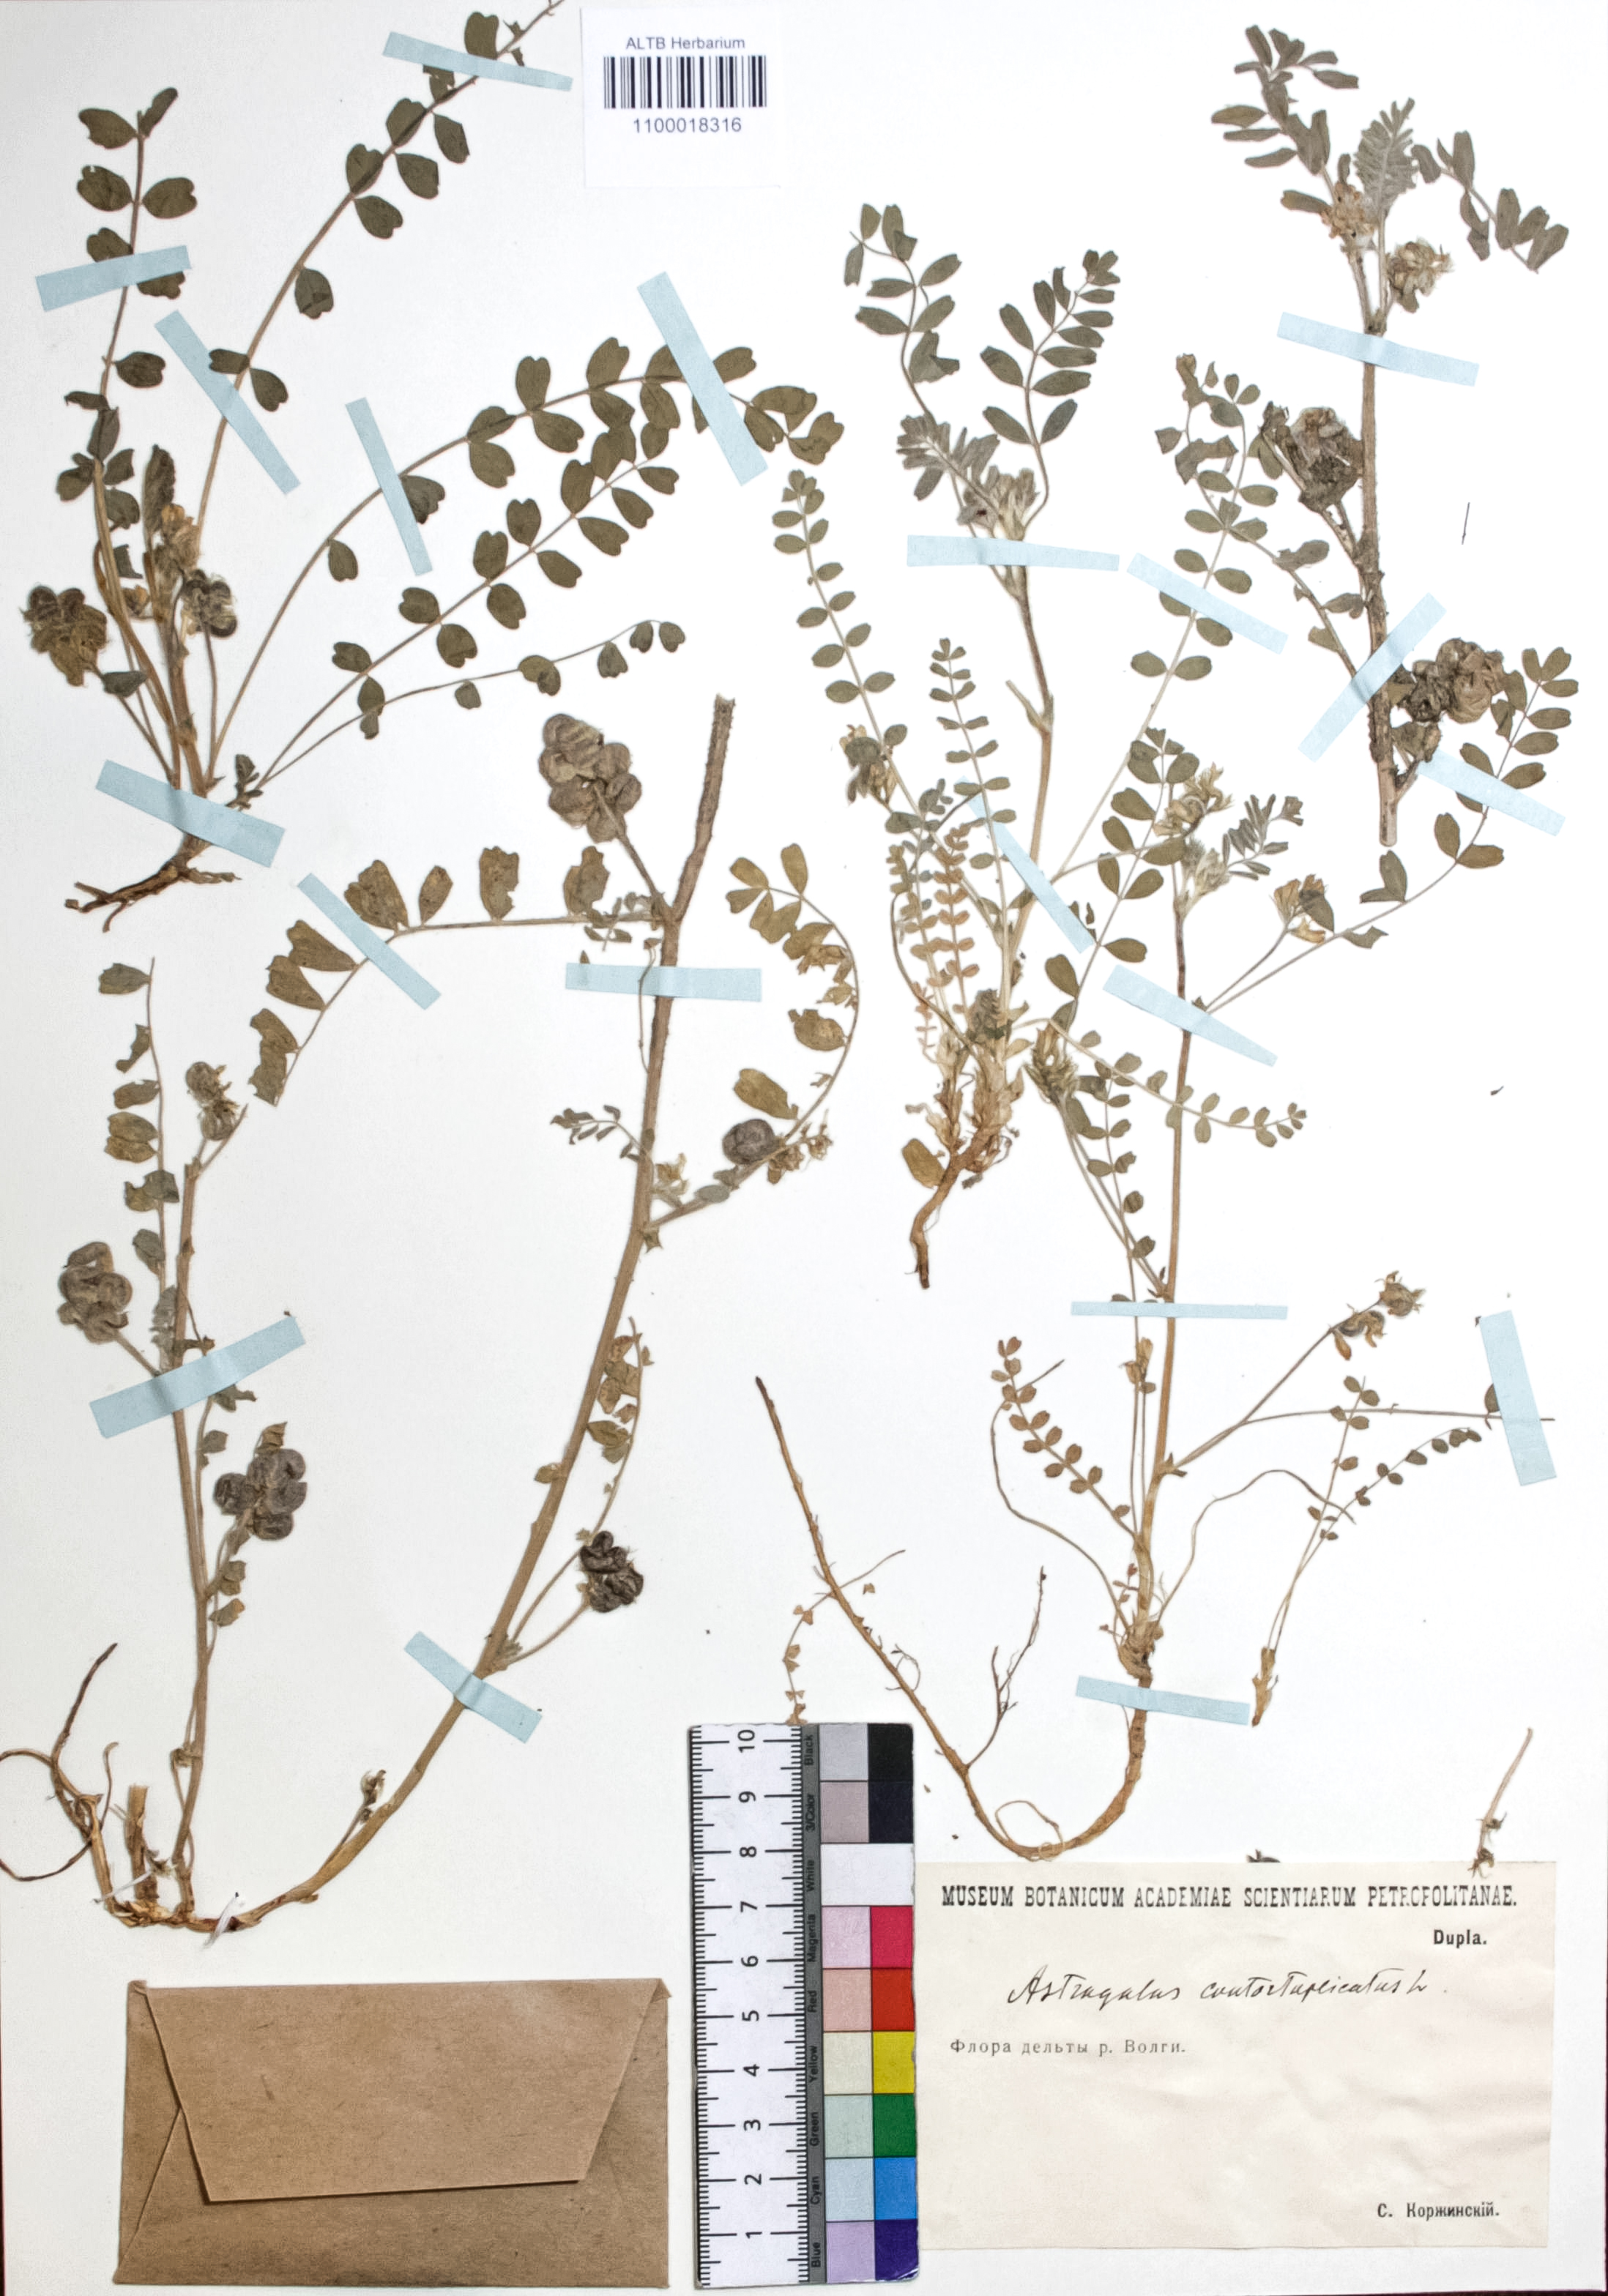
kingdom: Plantae
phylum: Tracheophyta
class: Magnoliopsida
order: Fabales
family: Fabaceae
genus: Astragalus
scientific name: Astragalus contortuplicatus
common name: Hungarian milkvetch
